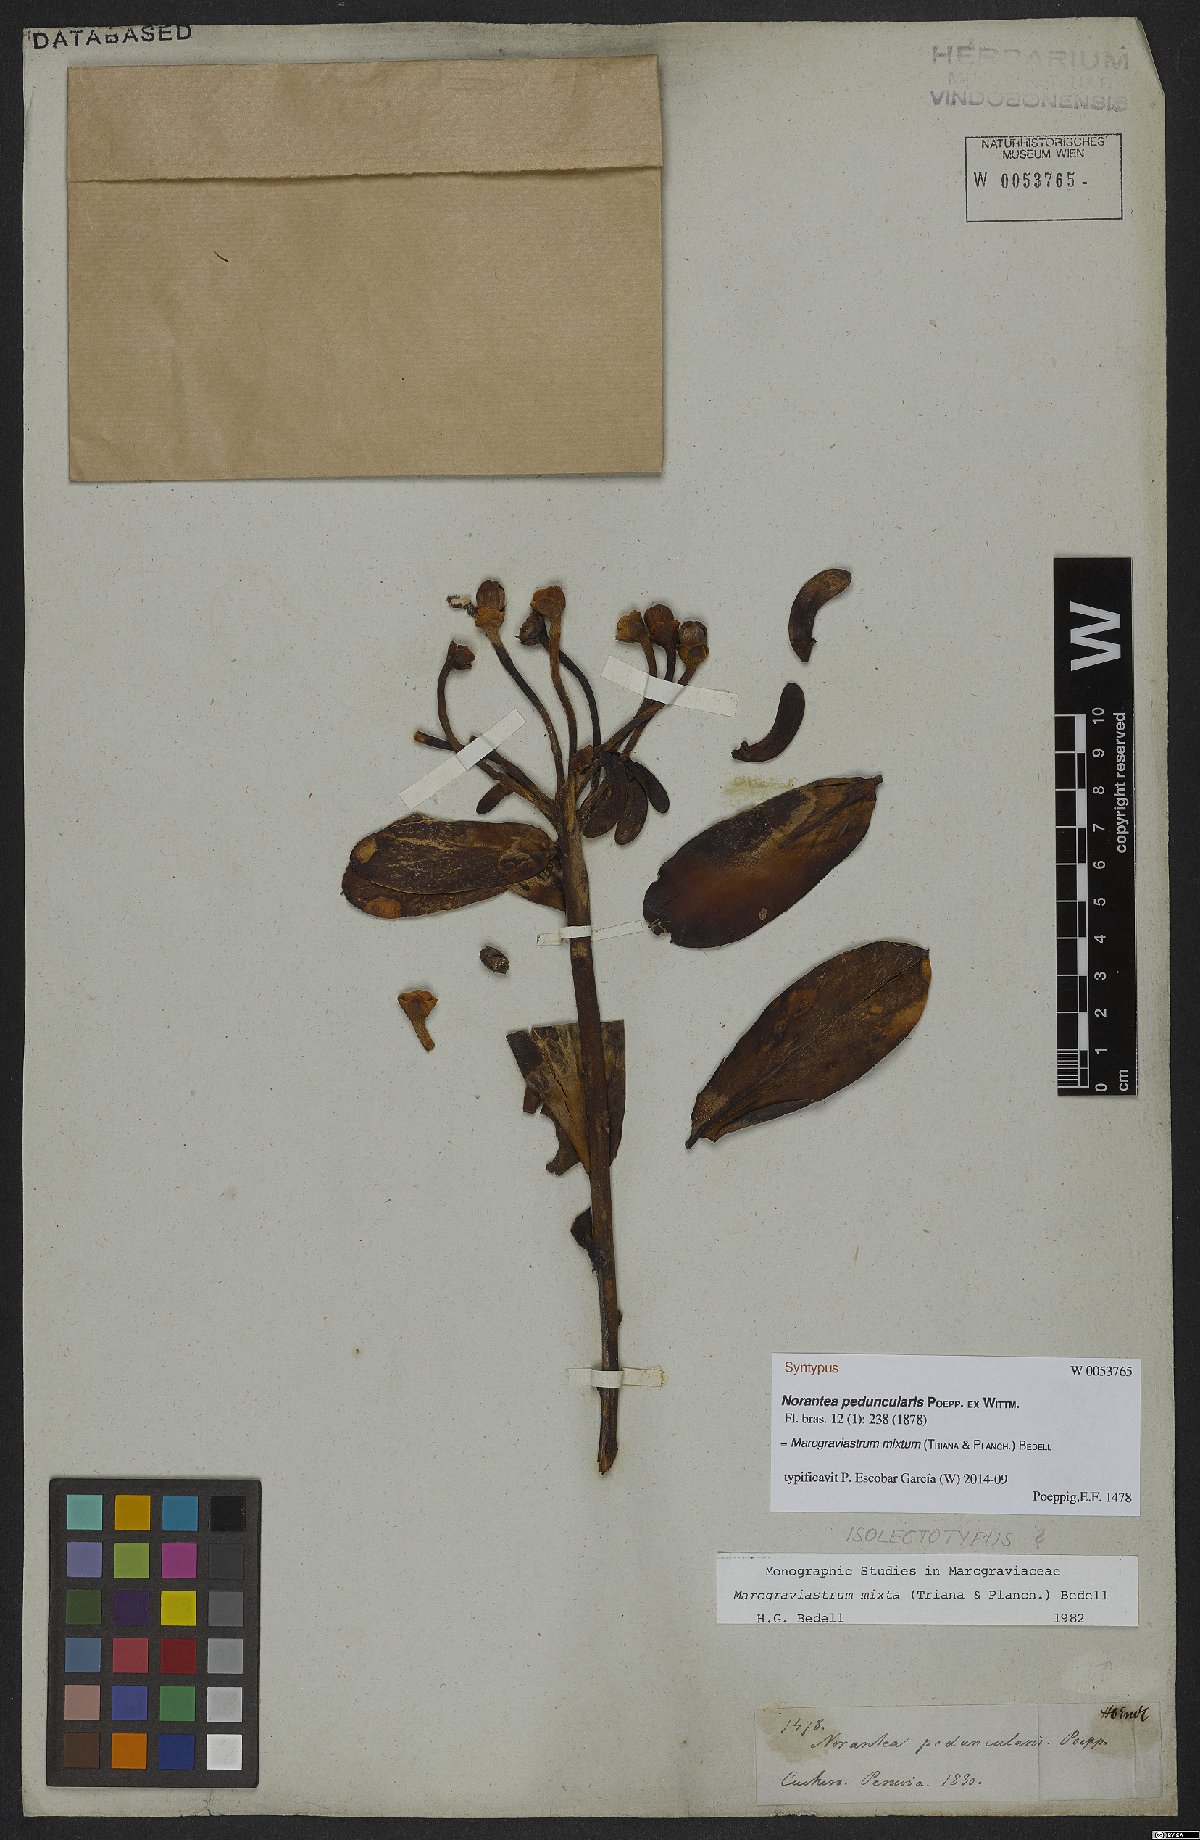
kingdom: Plantae
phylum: Tracheophyta
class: Magnoliopsida
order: Ericales
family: Marcgraviaceae
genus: Marcgraviastrum
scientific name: Marcgraviastrum mixtum
